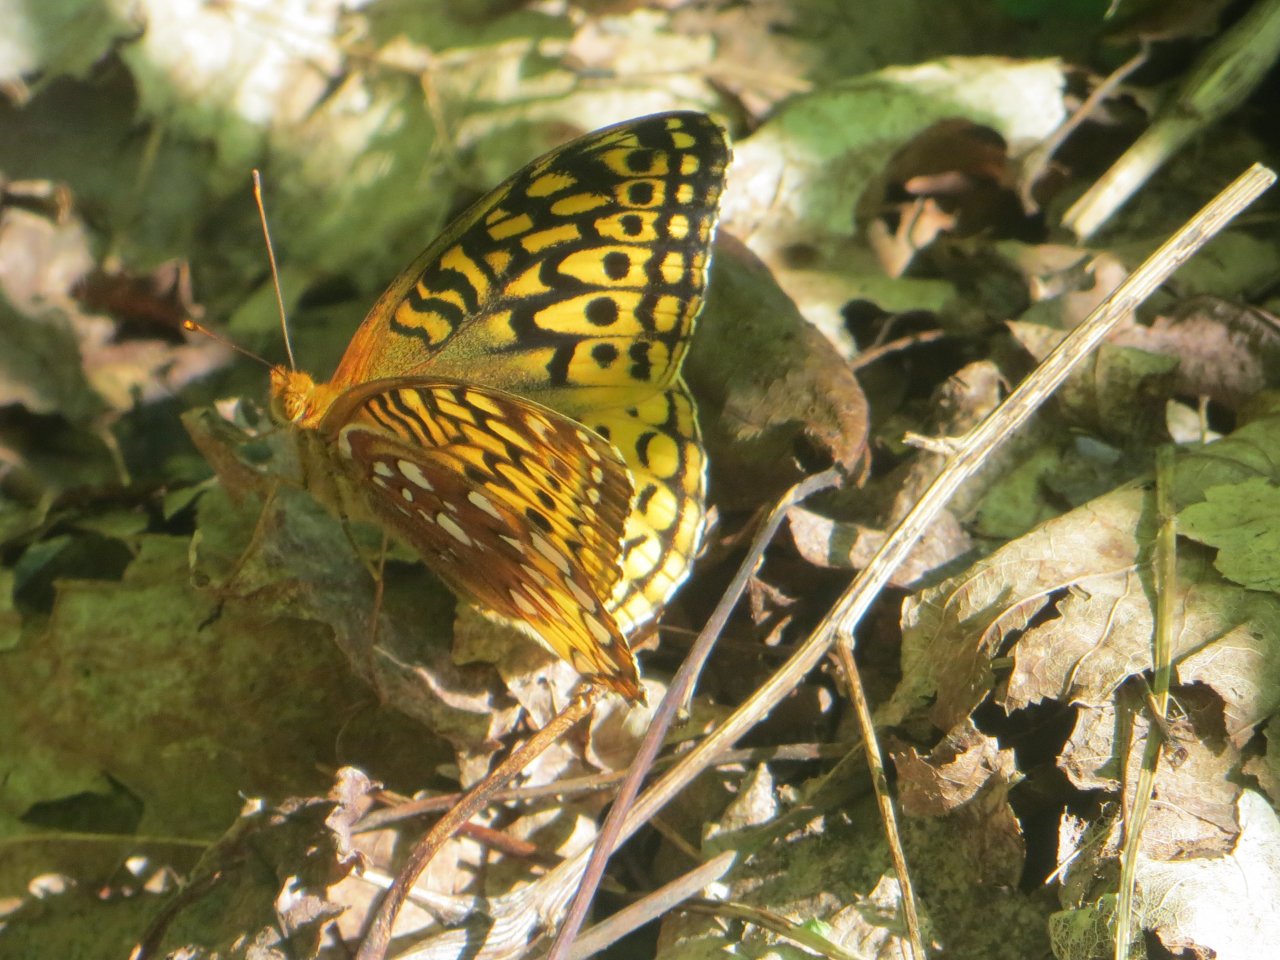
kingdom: Animalia
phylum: Arthropoda
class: Insecta
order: Lepidoptera
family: Nymphalidae
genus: Speyeria
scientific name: Speyeria cybele
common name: Great Spangled Fritillary
